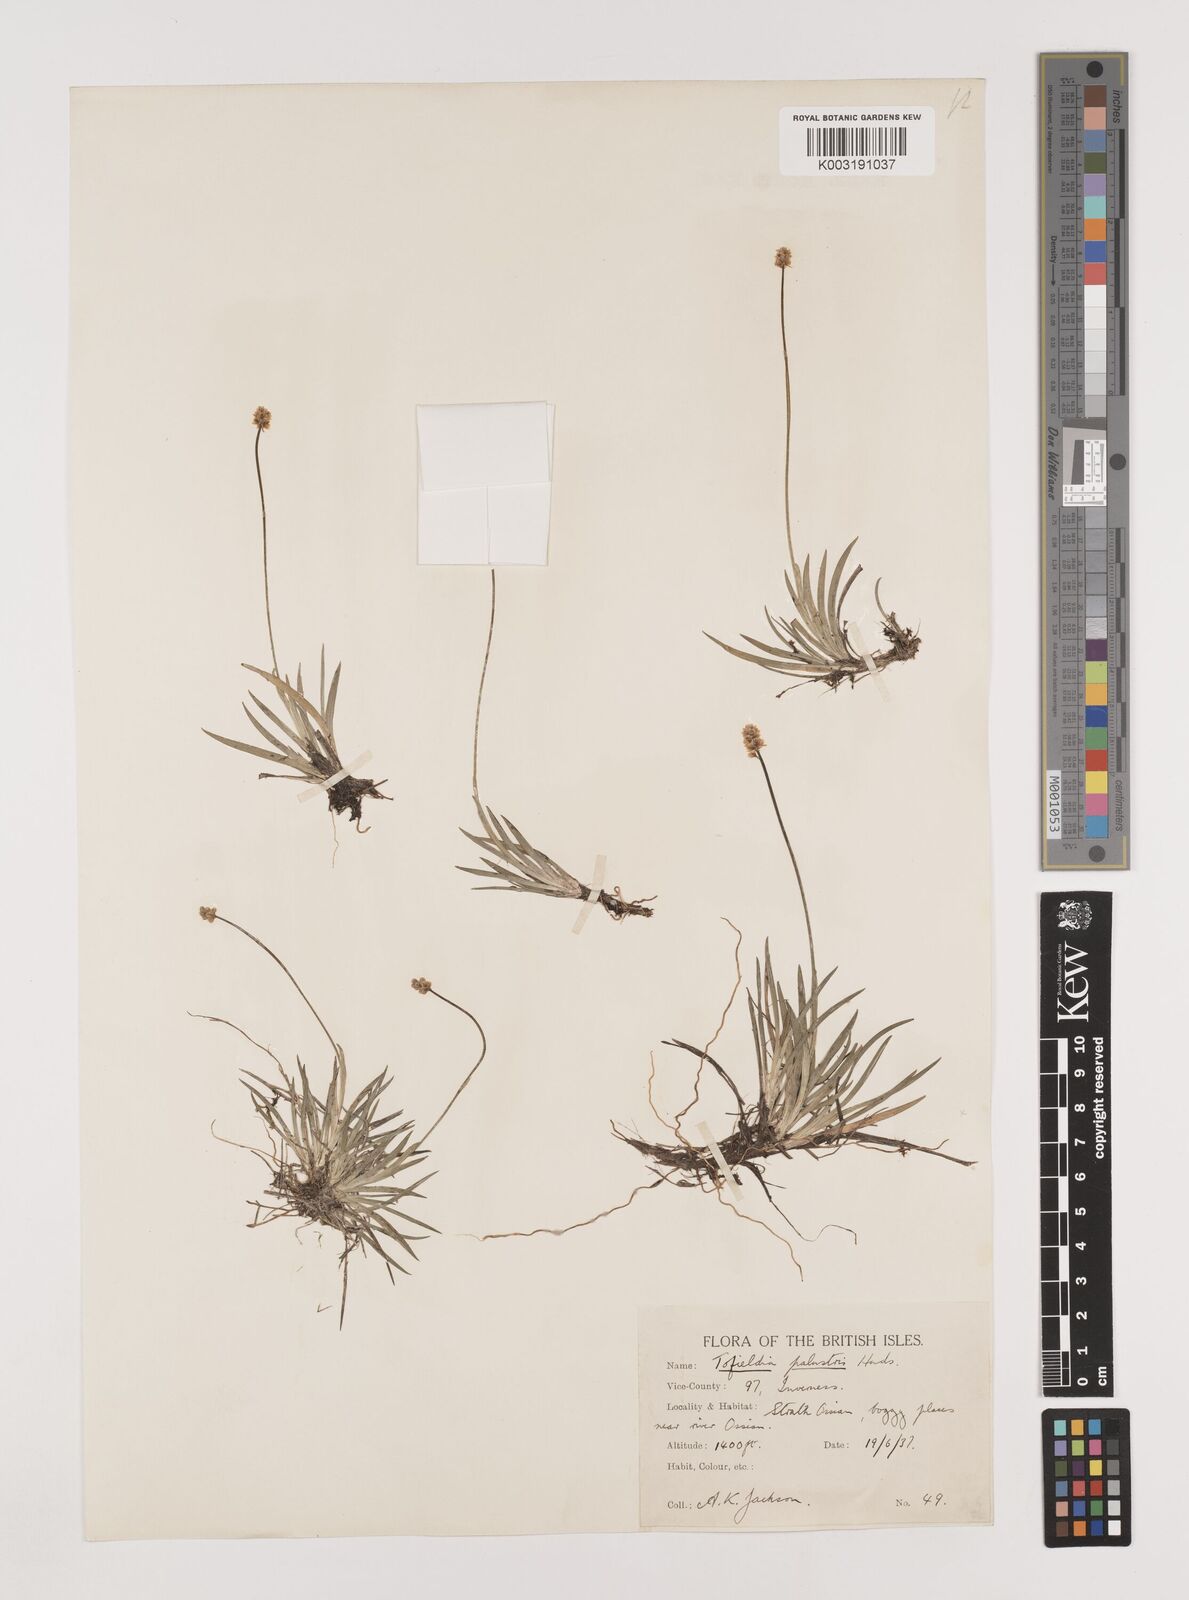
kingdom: Plantae
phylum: Tracheophyta
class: Liliopsida
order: Alismatales
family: Tofieldiaceae
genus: Tofieldia
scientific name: Tofieldia pusilla
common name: Scottish false asphodel
